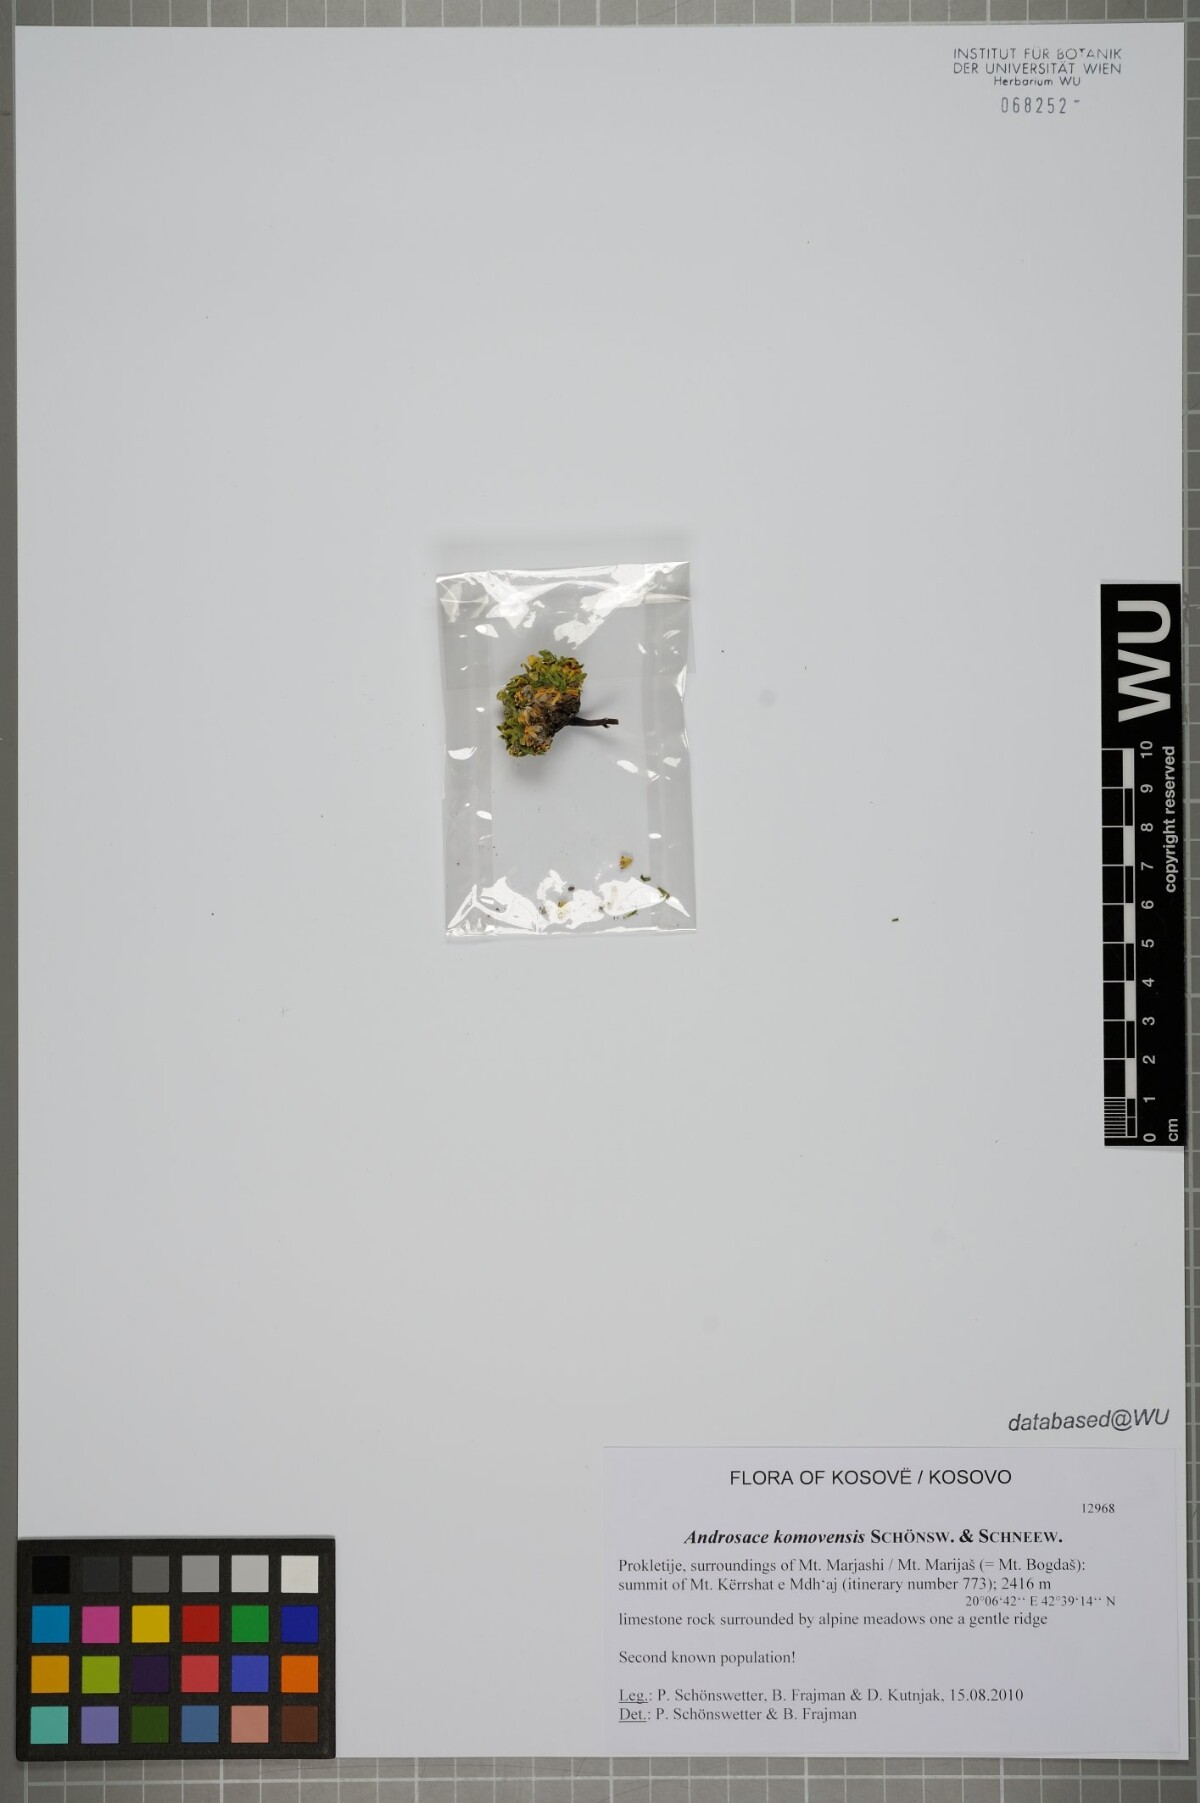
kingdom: Plantae
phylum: Tracheophyta
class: Magnoliopsida
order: Ericales
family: Primulaceae
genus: Androsace
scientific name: Androsace komovensis
